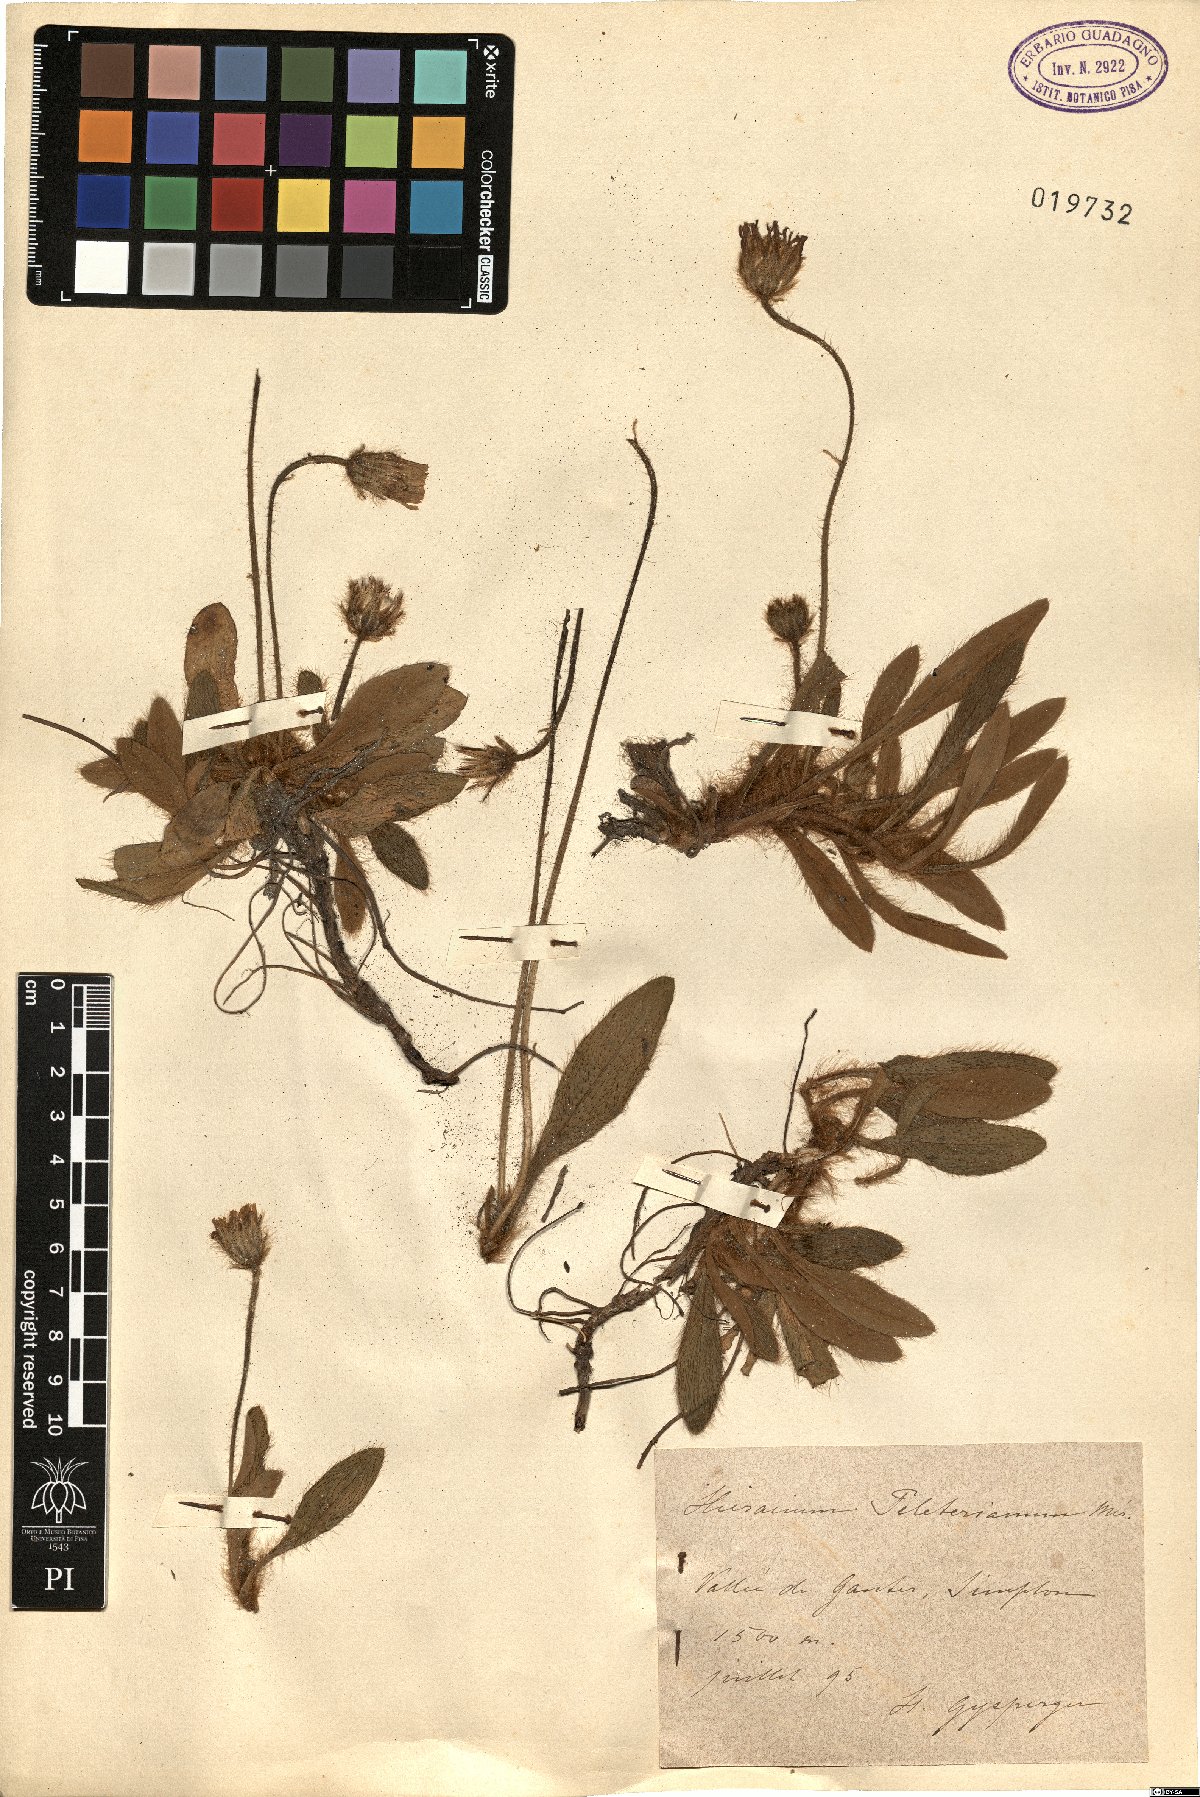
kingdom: Plantae
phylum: Tracheophyta
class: Magnoliopsida
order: Asterales
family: Asteraceae
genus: Pilosella
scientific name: Pilosella peleteriana
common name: Shaggy mouse-ear-hawkweed
